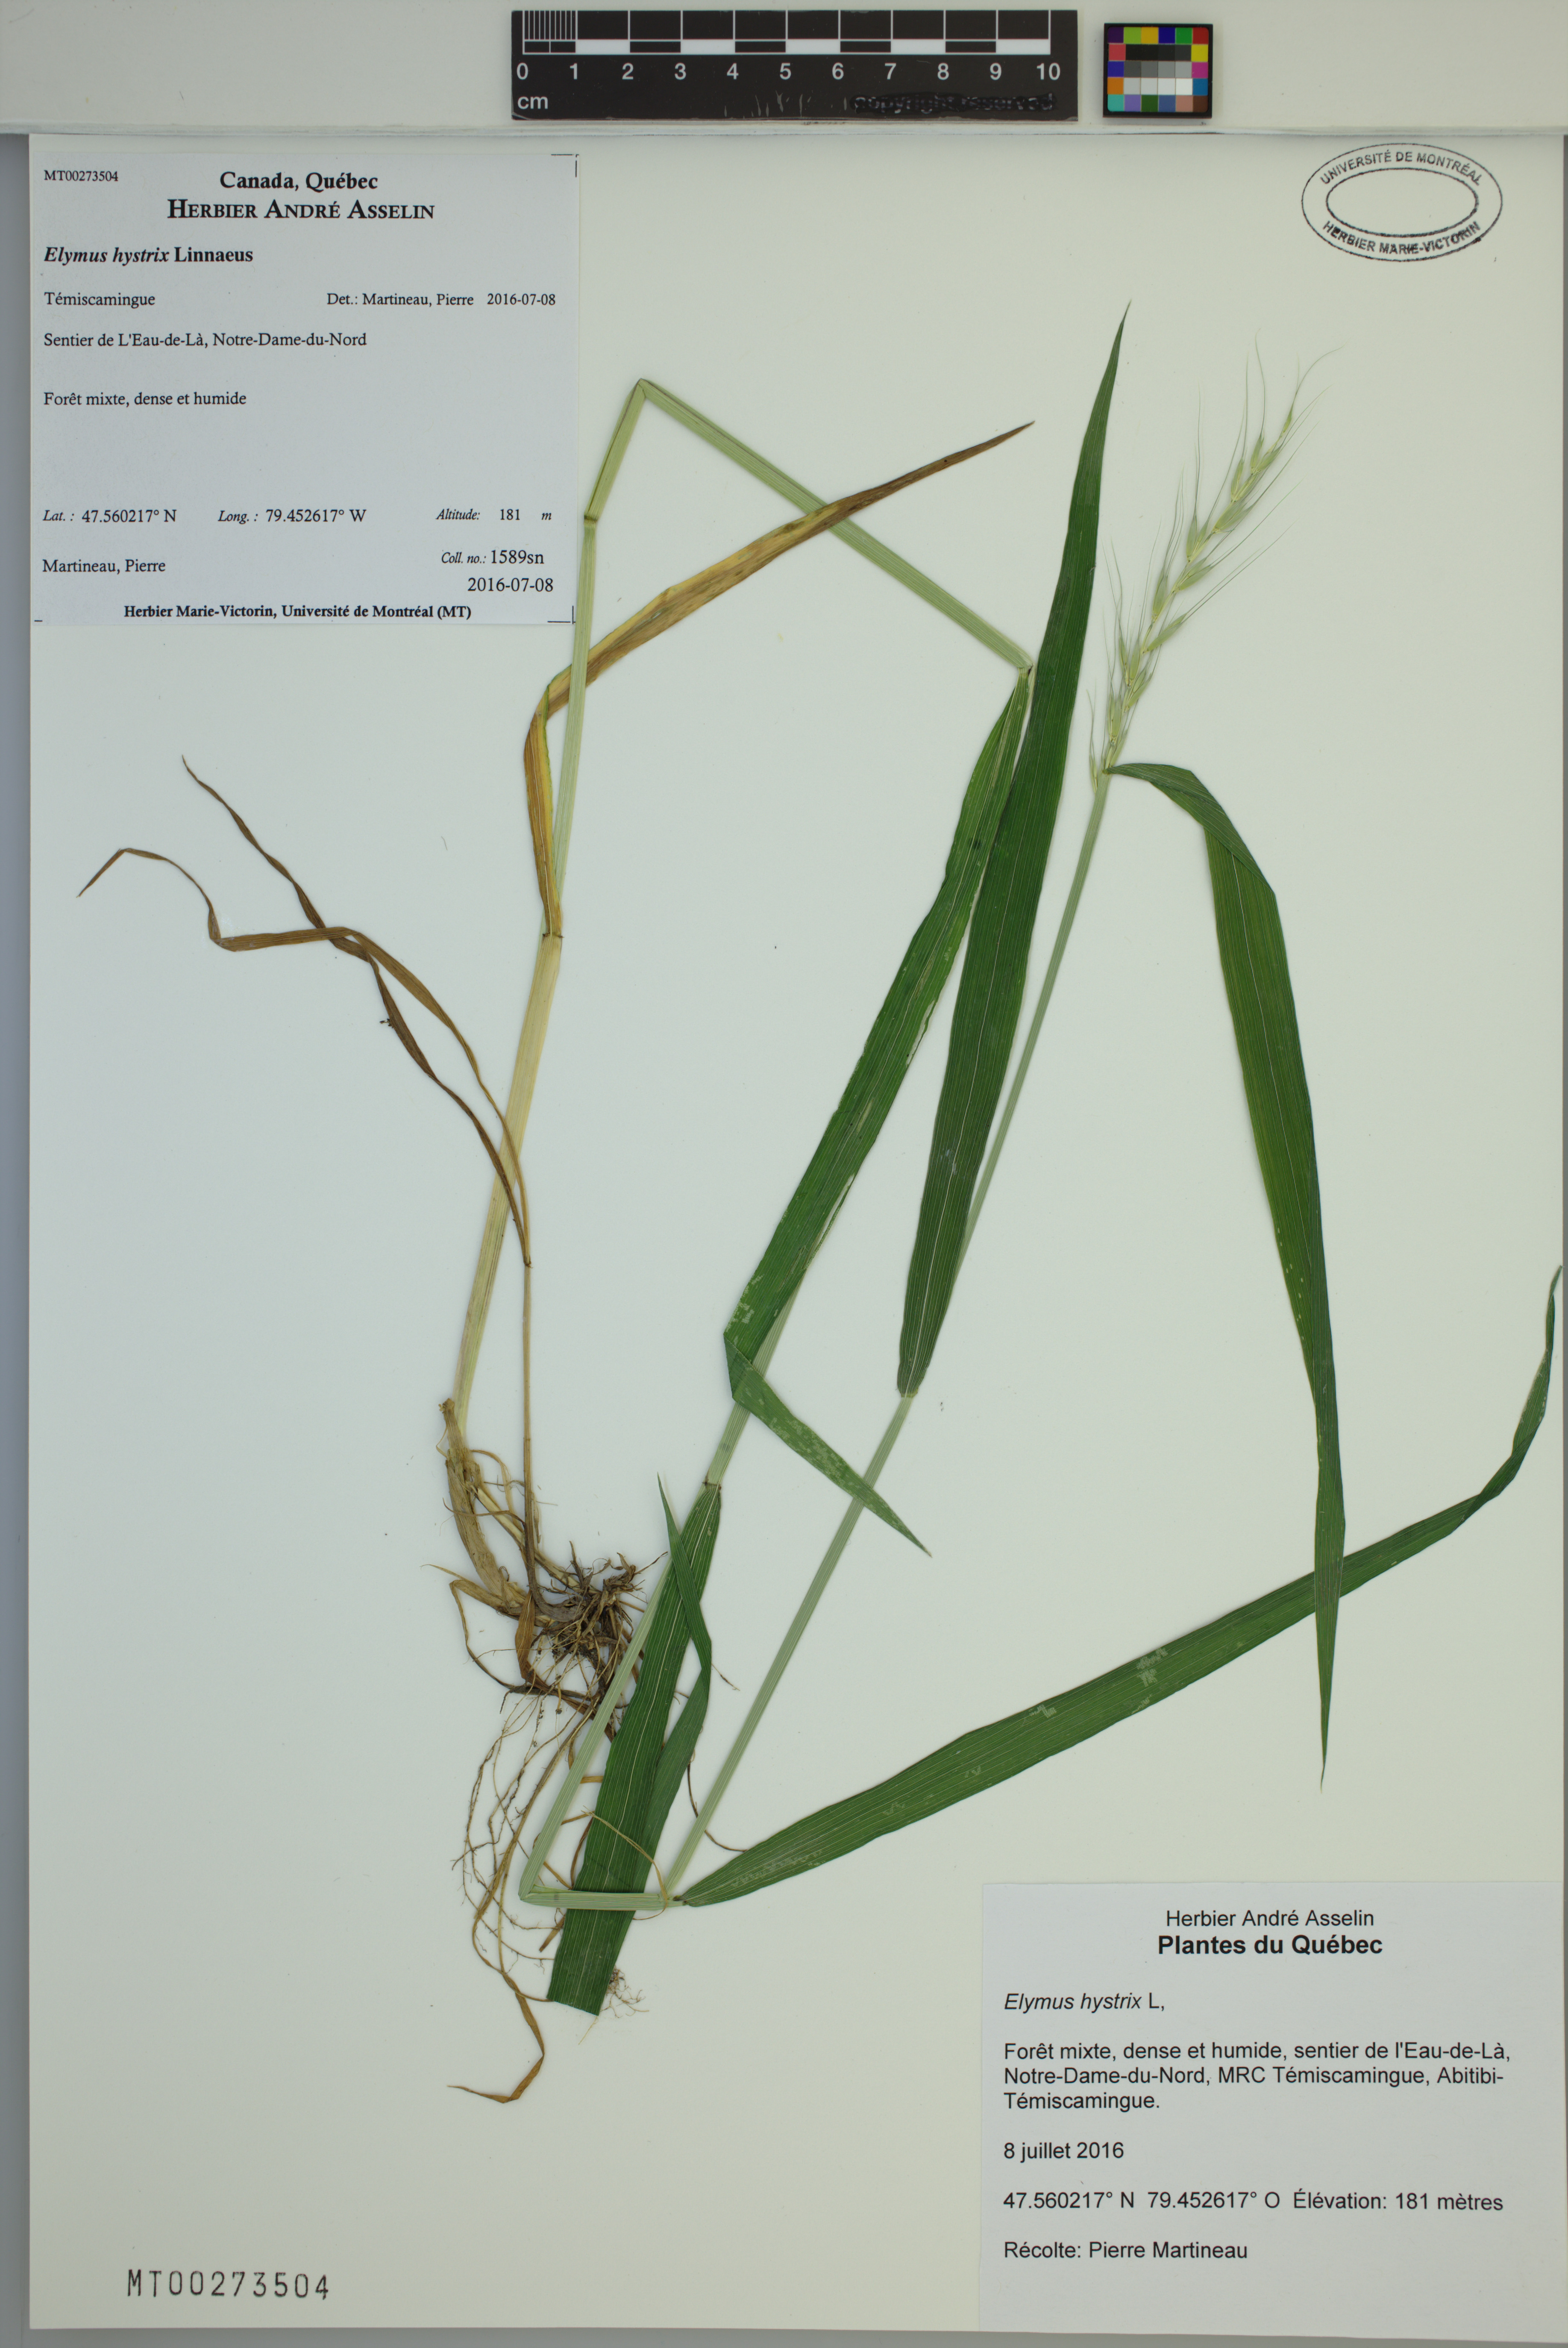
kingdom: Plantae
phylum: Tracheophyta
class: Liliopsida
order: Poales
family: Poaceae
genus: Elymus
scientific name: Elymus hystrix
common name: Bottlebrush grass
